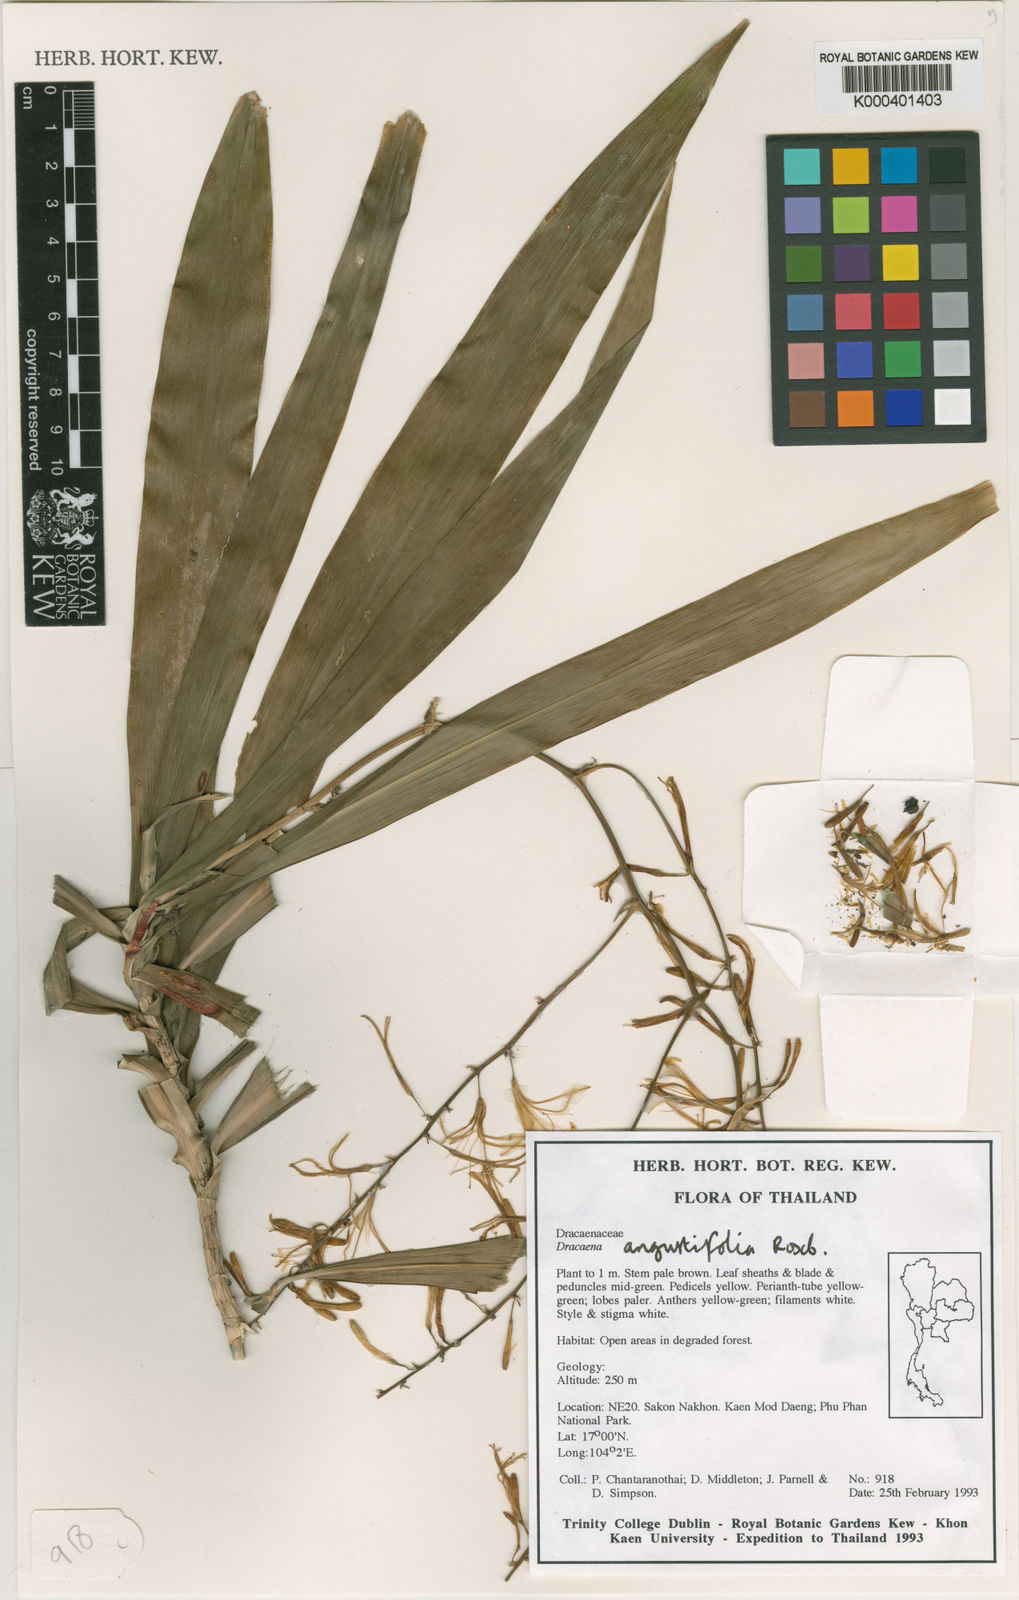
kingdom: Plantae
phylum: Tracheophyta
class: Liliopsida
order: Asparagales
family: Asparagaceae
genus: Dracaena
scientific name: Dracaena angustifolia
